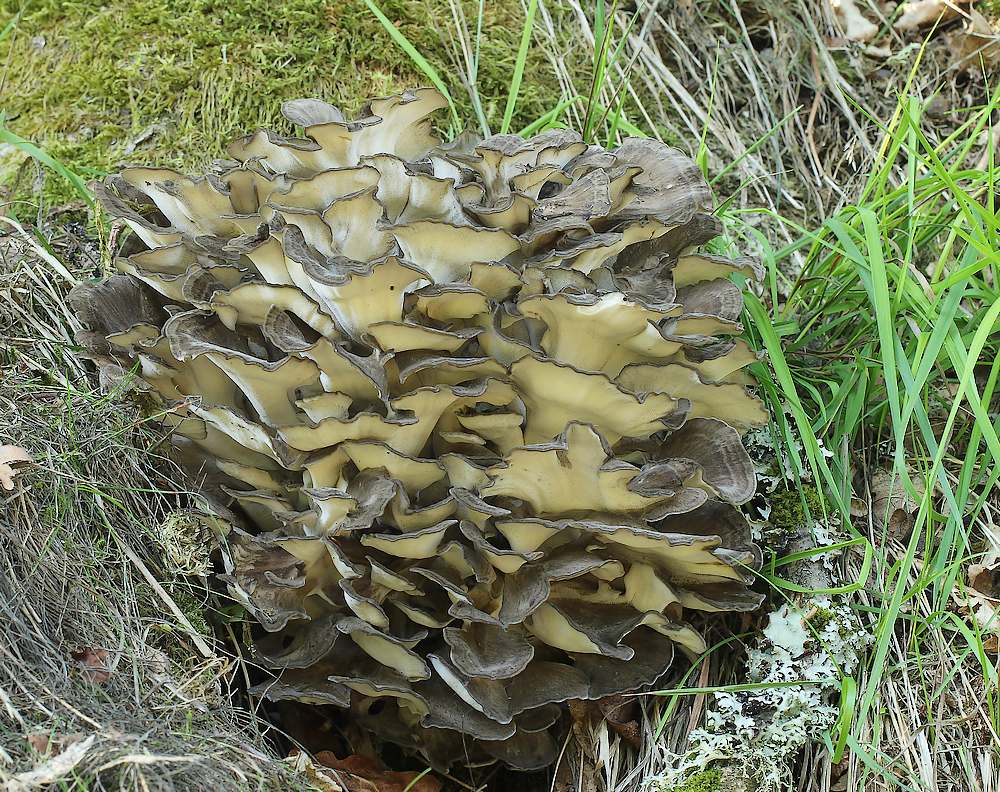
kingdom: Fungi
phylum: Basidiomycota
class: Agaricomycetes
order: Polyporales
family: Grifolaceae
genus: Grifola
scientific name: Grifola frondosa
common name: tueporesvamp
